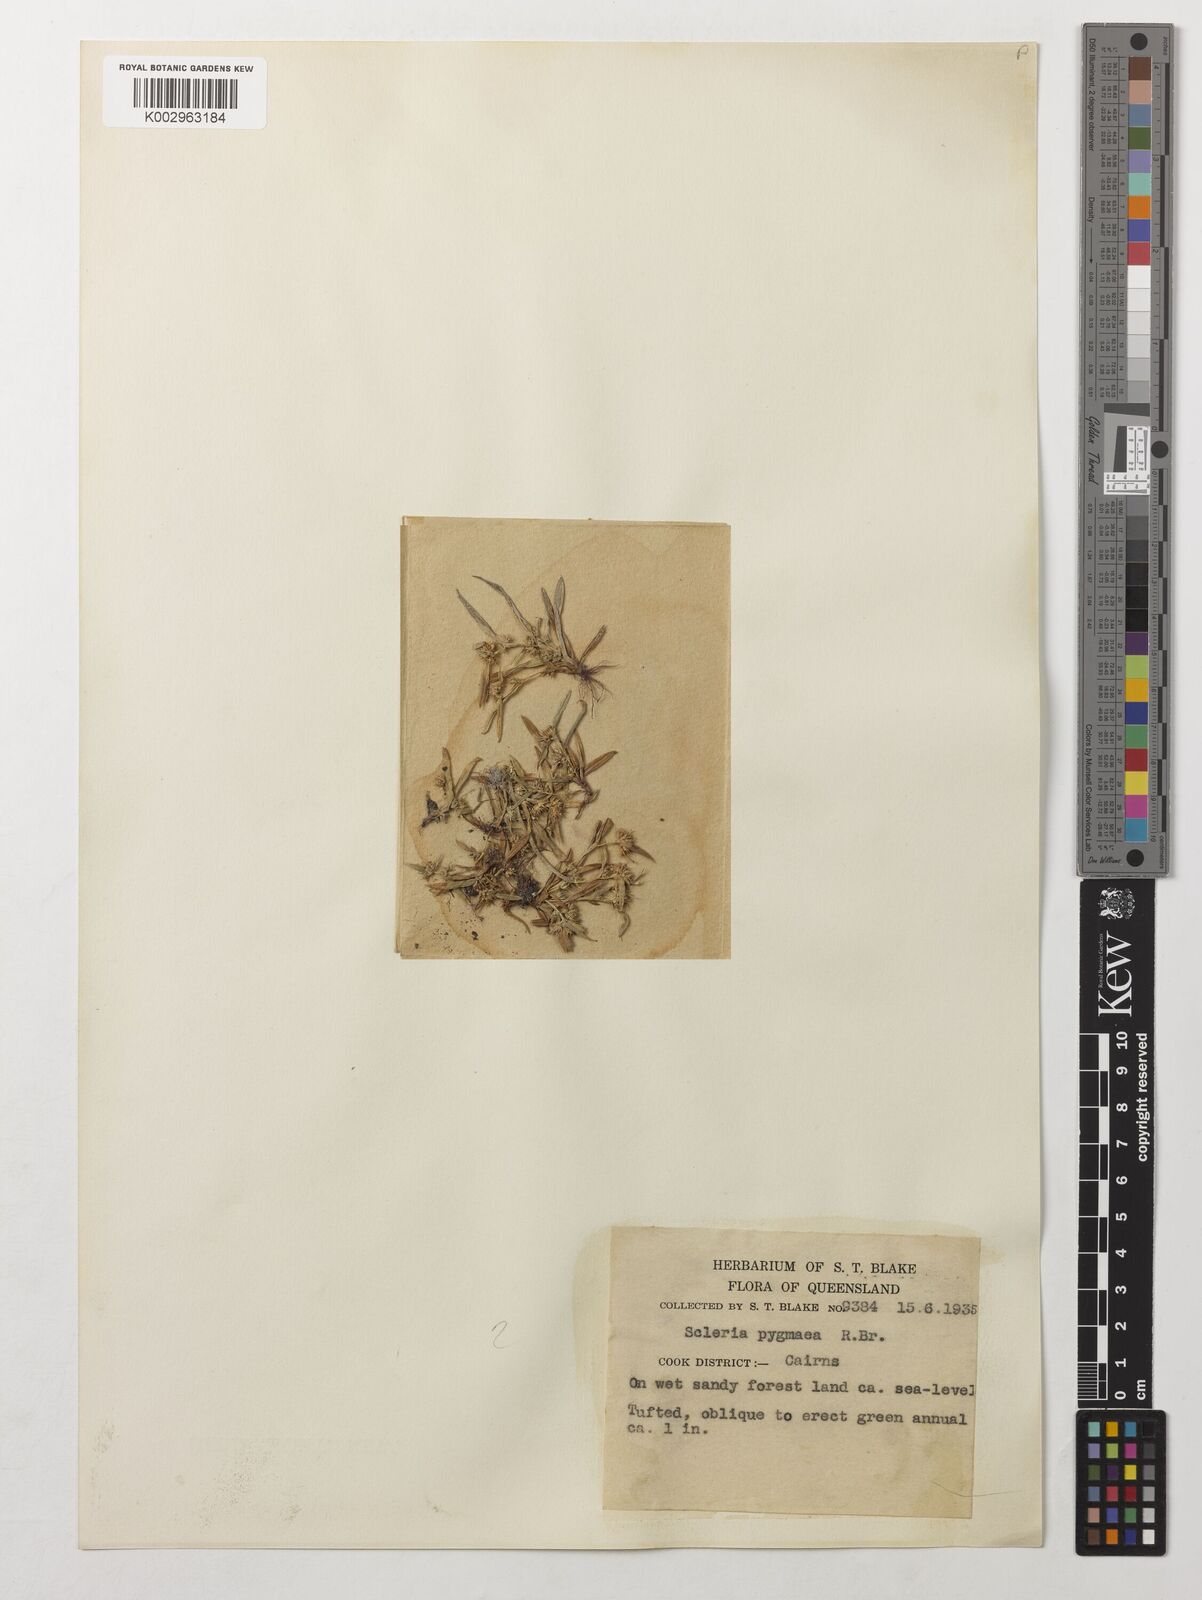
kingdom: Plantae
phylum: Tracheophyta
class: Liliopsida
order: Poales
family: Cyperaceae
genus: Diplacrum
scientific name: Diplacrum pygmaeum
